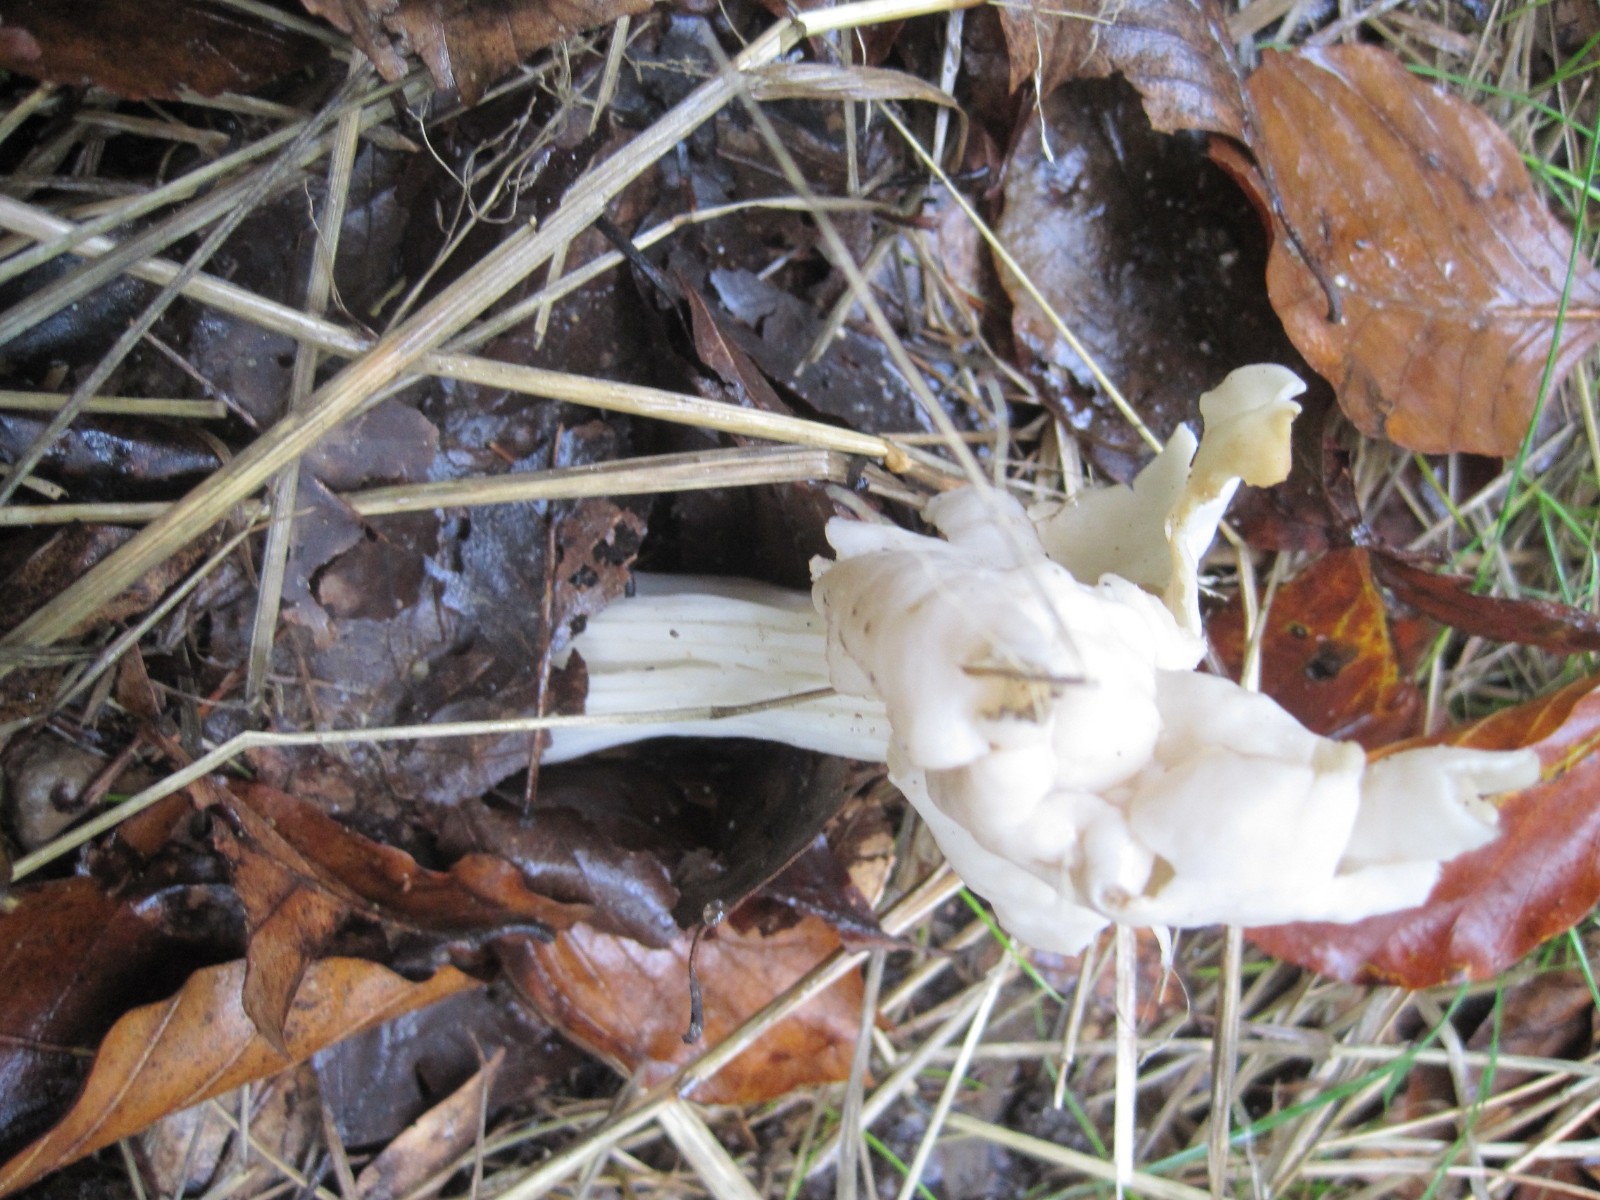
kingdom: Fungi
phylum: Ascomycota
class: Pezizomycetes
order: Pezizales
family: Helvellaceae
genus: Helvella
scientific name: Helvella crispa
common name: kruset foldhat
